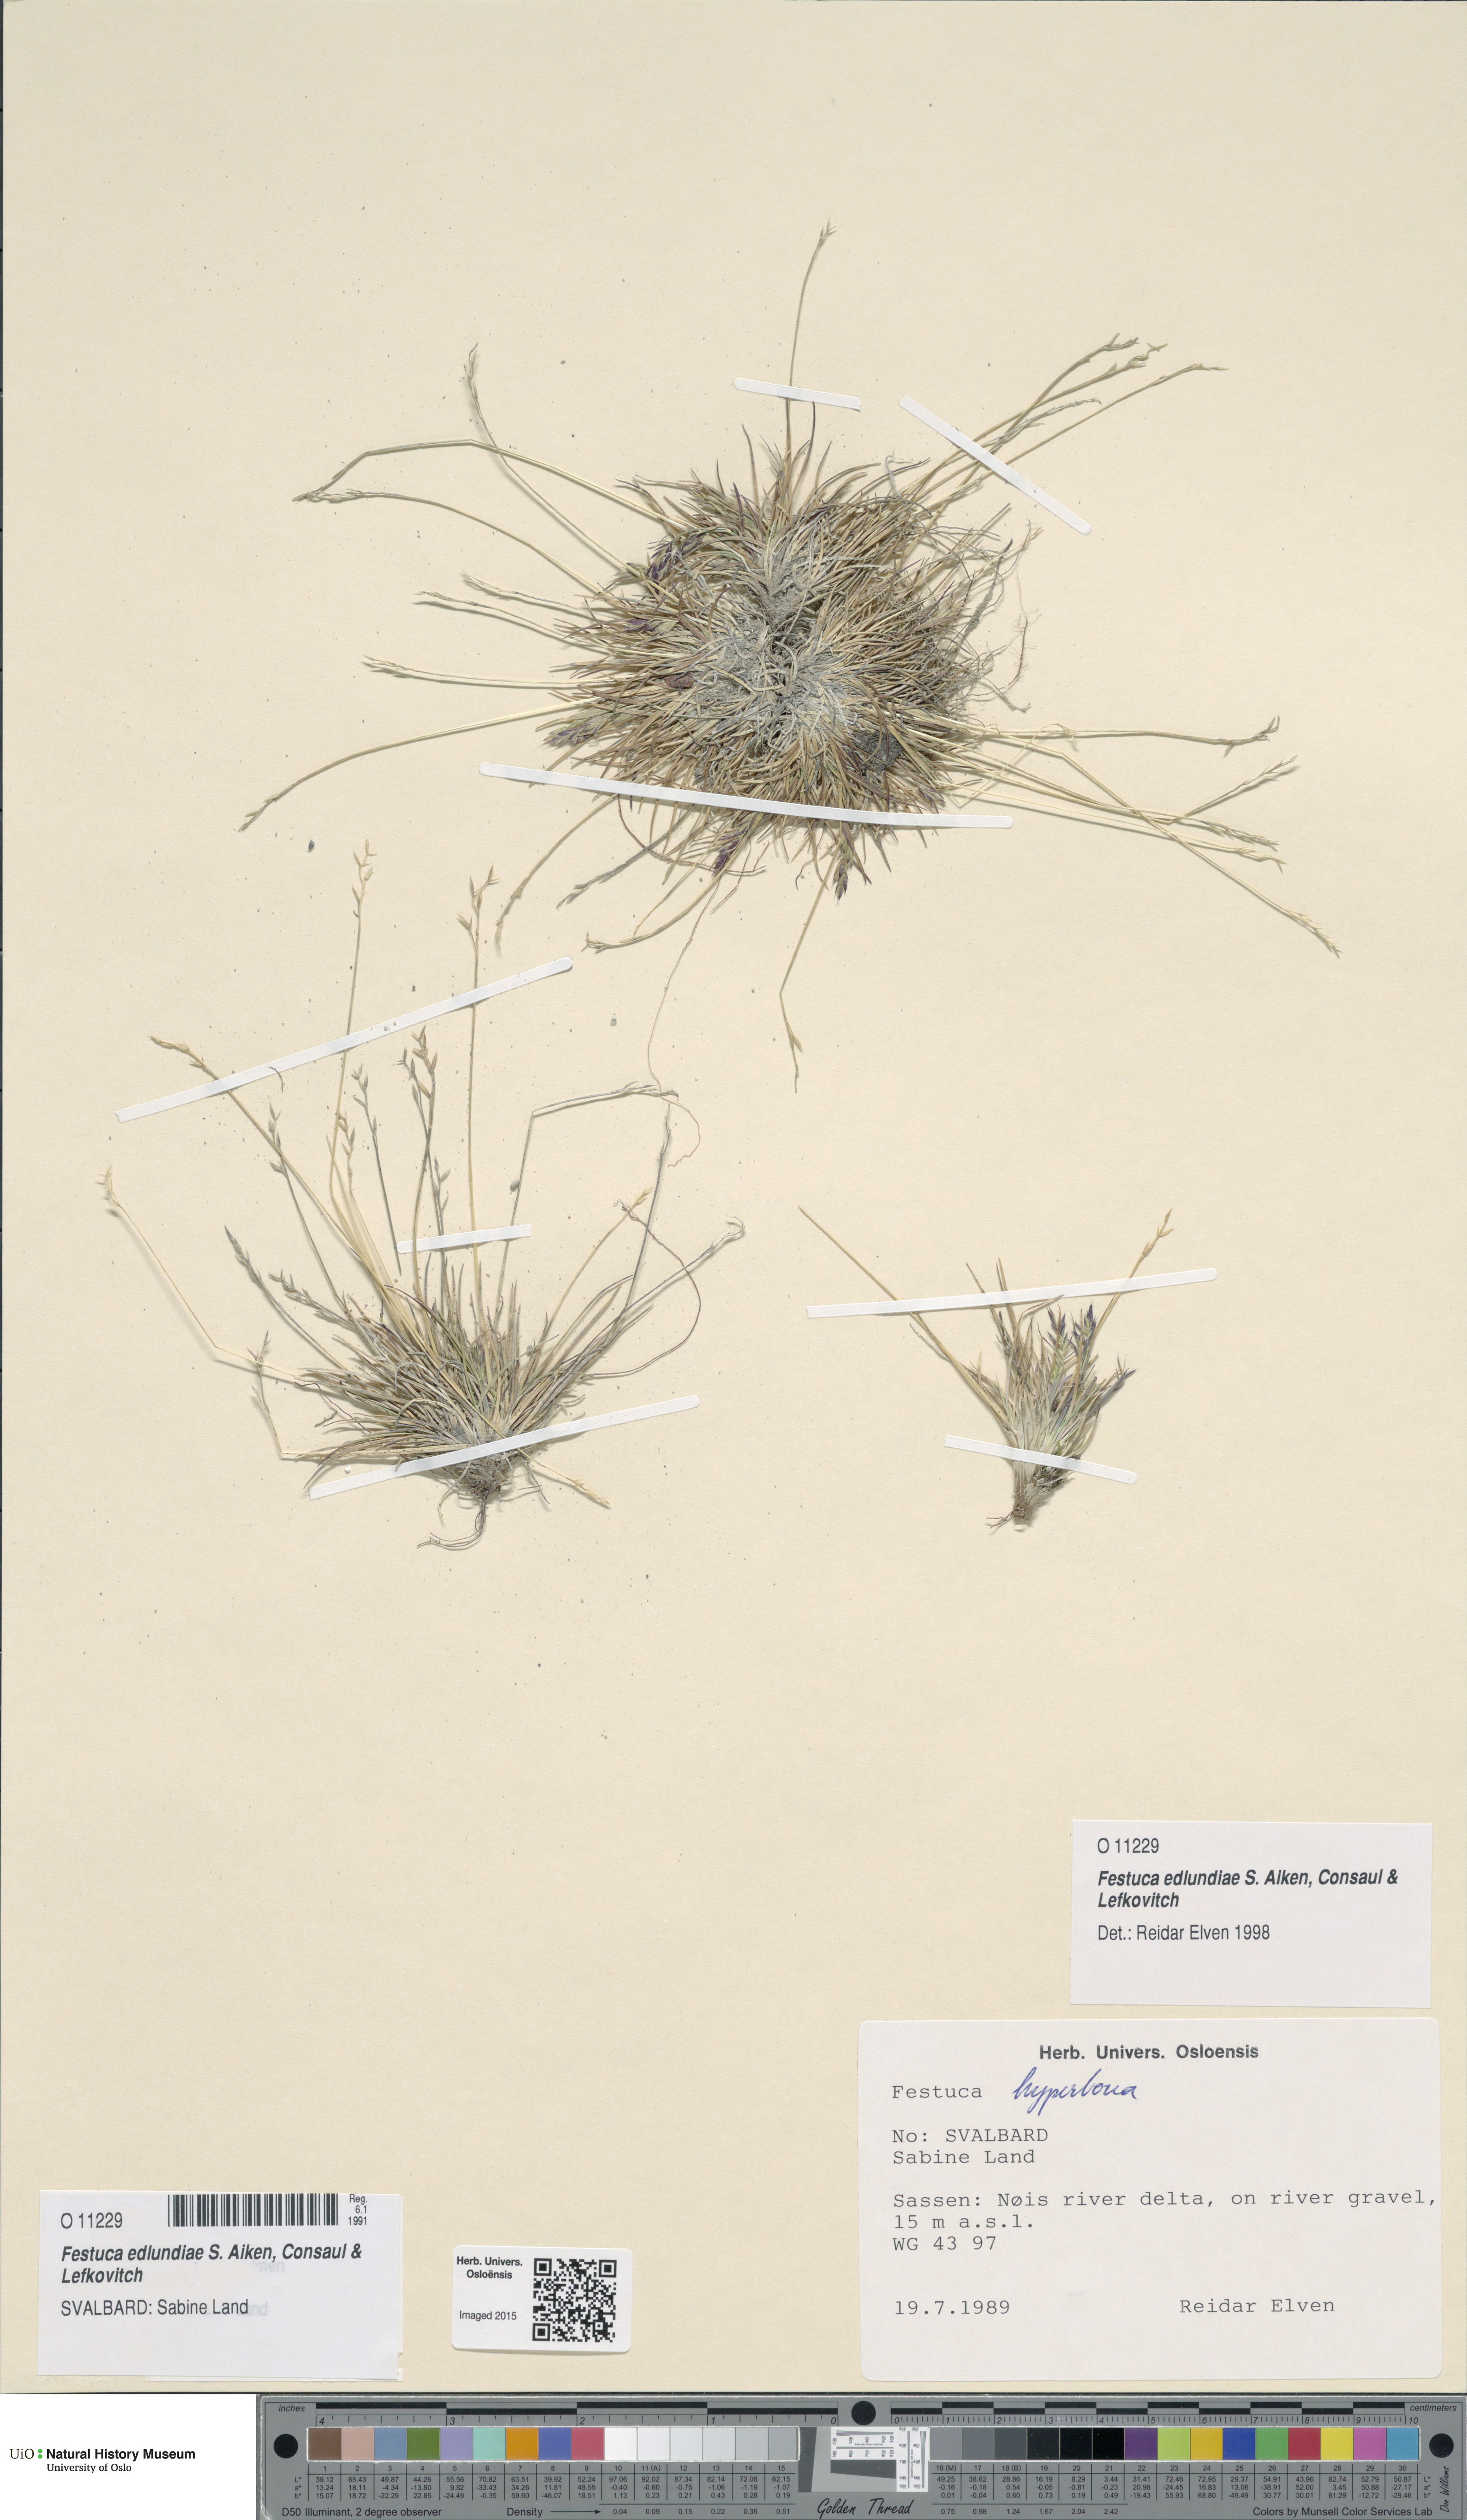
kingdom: Plantae
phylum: Tracheophyta
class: Liliopsida
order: Poales
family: Poaceae
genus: Festuca
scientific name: Festuca edlundiae
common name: Edlund's fescue
